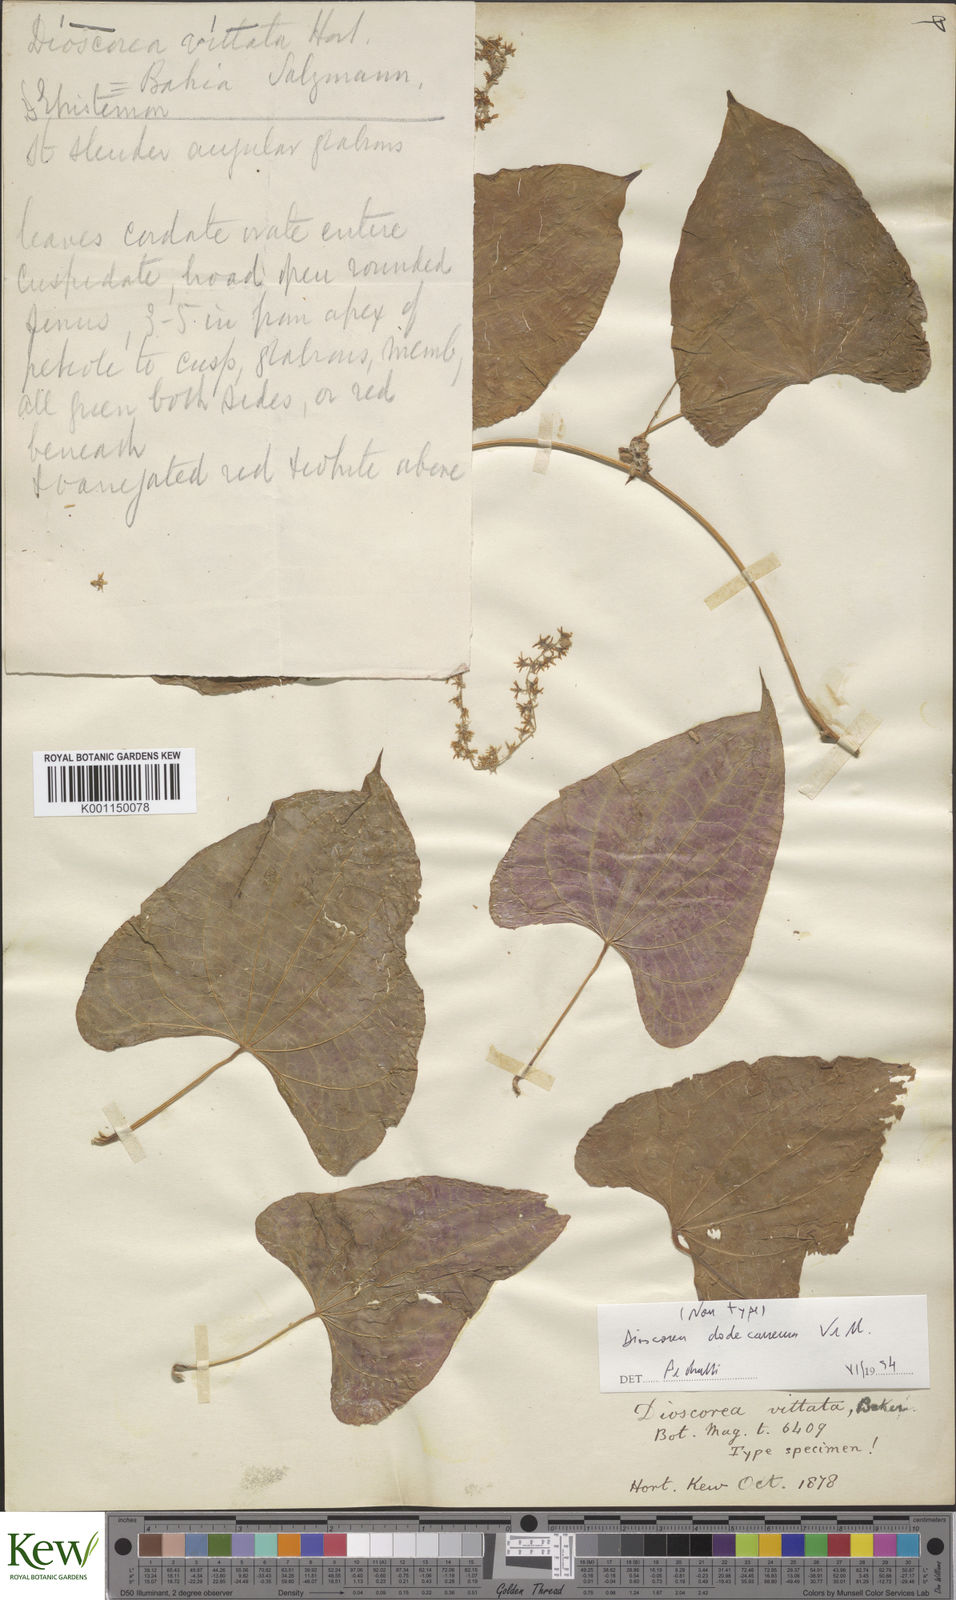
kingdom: Plantae
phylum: Tracheophyta
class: Liliopsida
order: Dioscoreales
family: Dioscoreaceae
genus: Dioscorea
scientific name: Dioscorea dodecaneura
